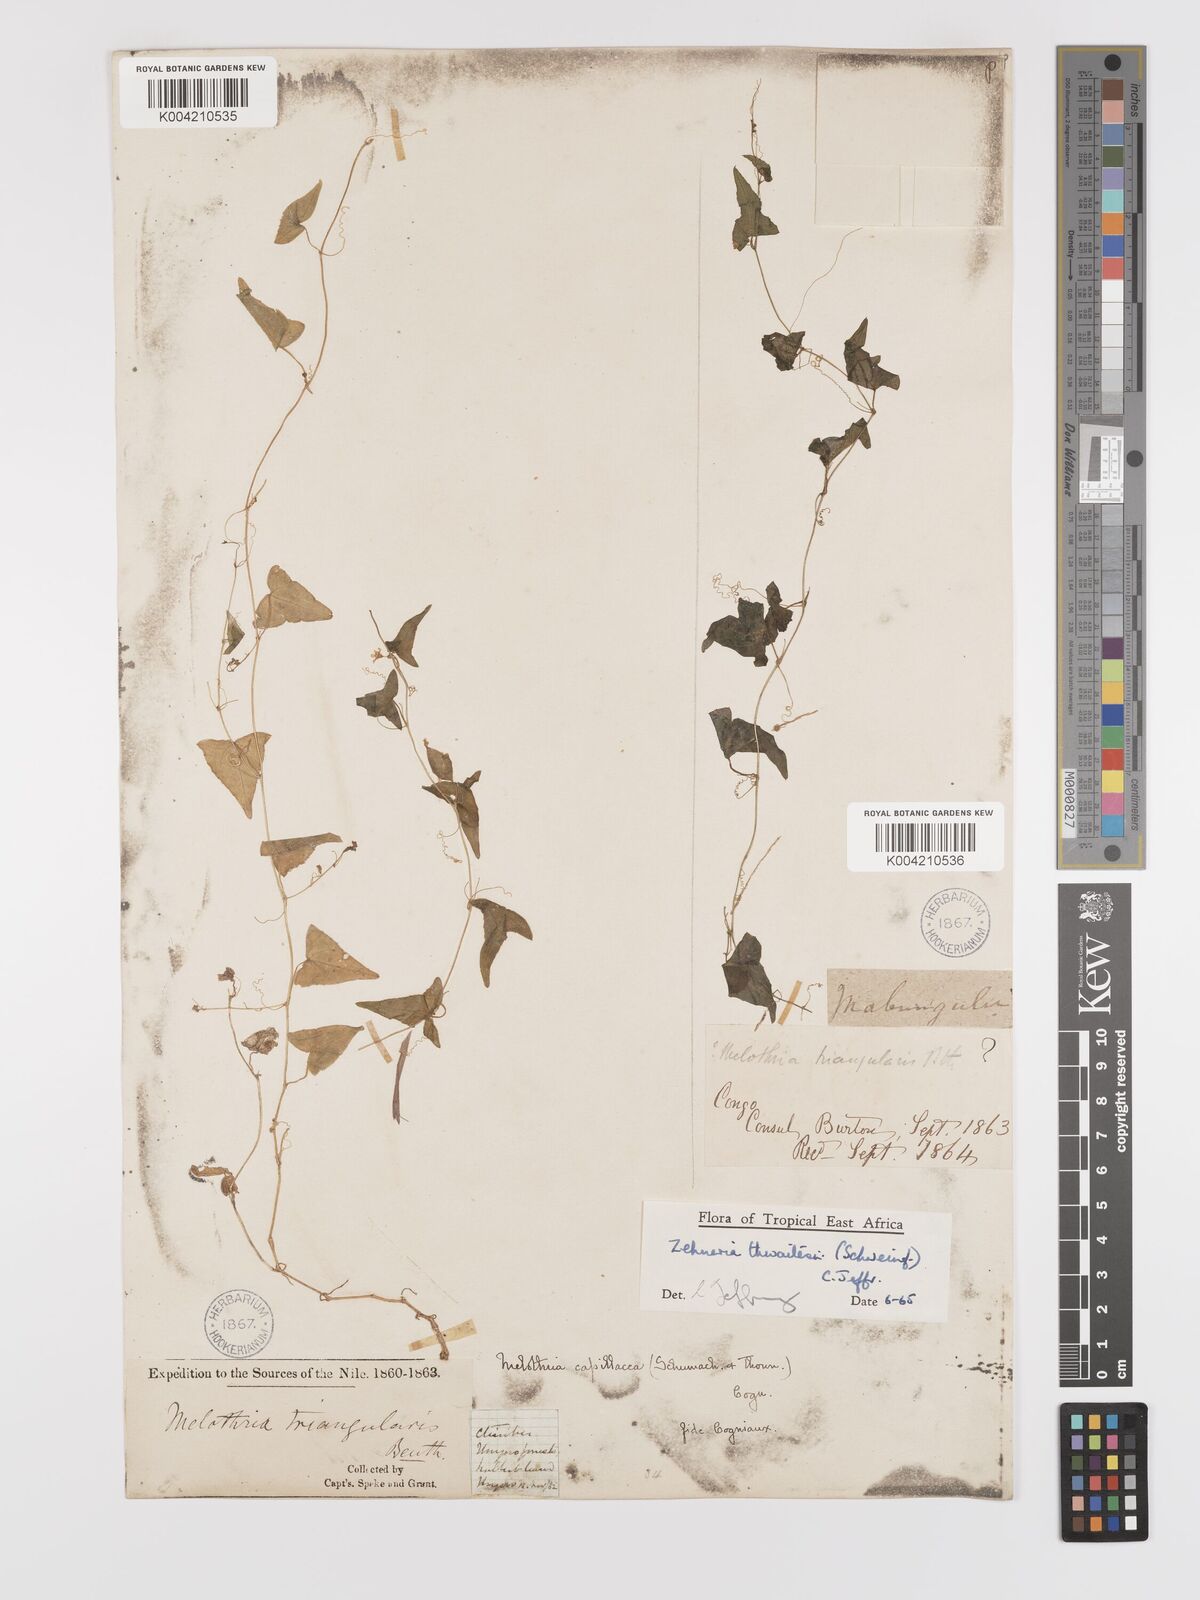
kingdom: Plantae
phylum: Tracheophyta
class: Magnoliopsida
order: Cucurbitales
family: Cucurbitaceae
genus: Zehneria
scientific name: Zehneria thwaitesii
